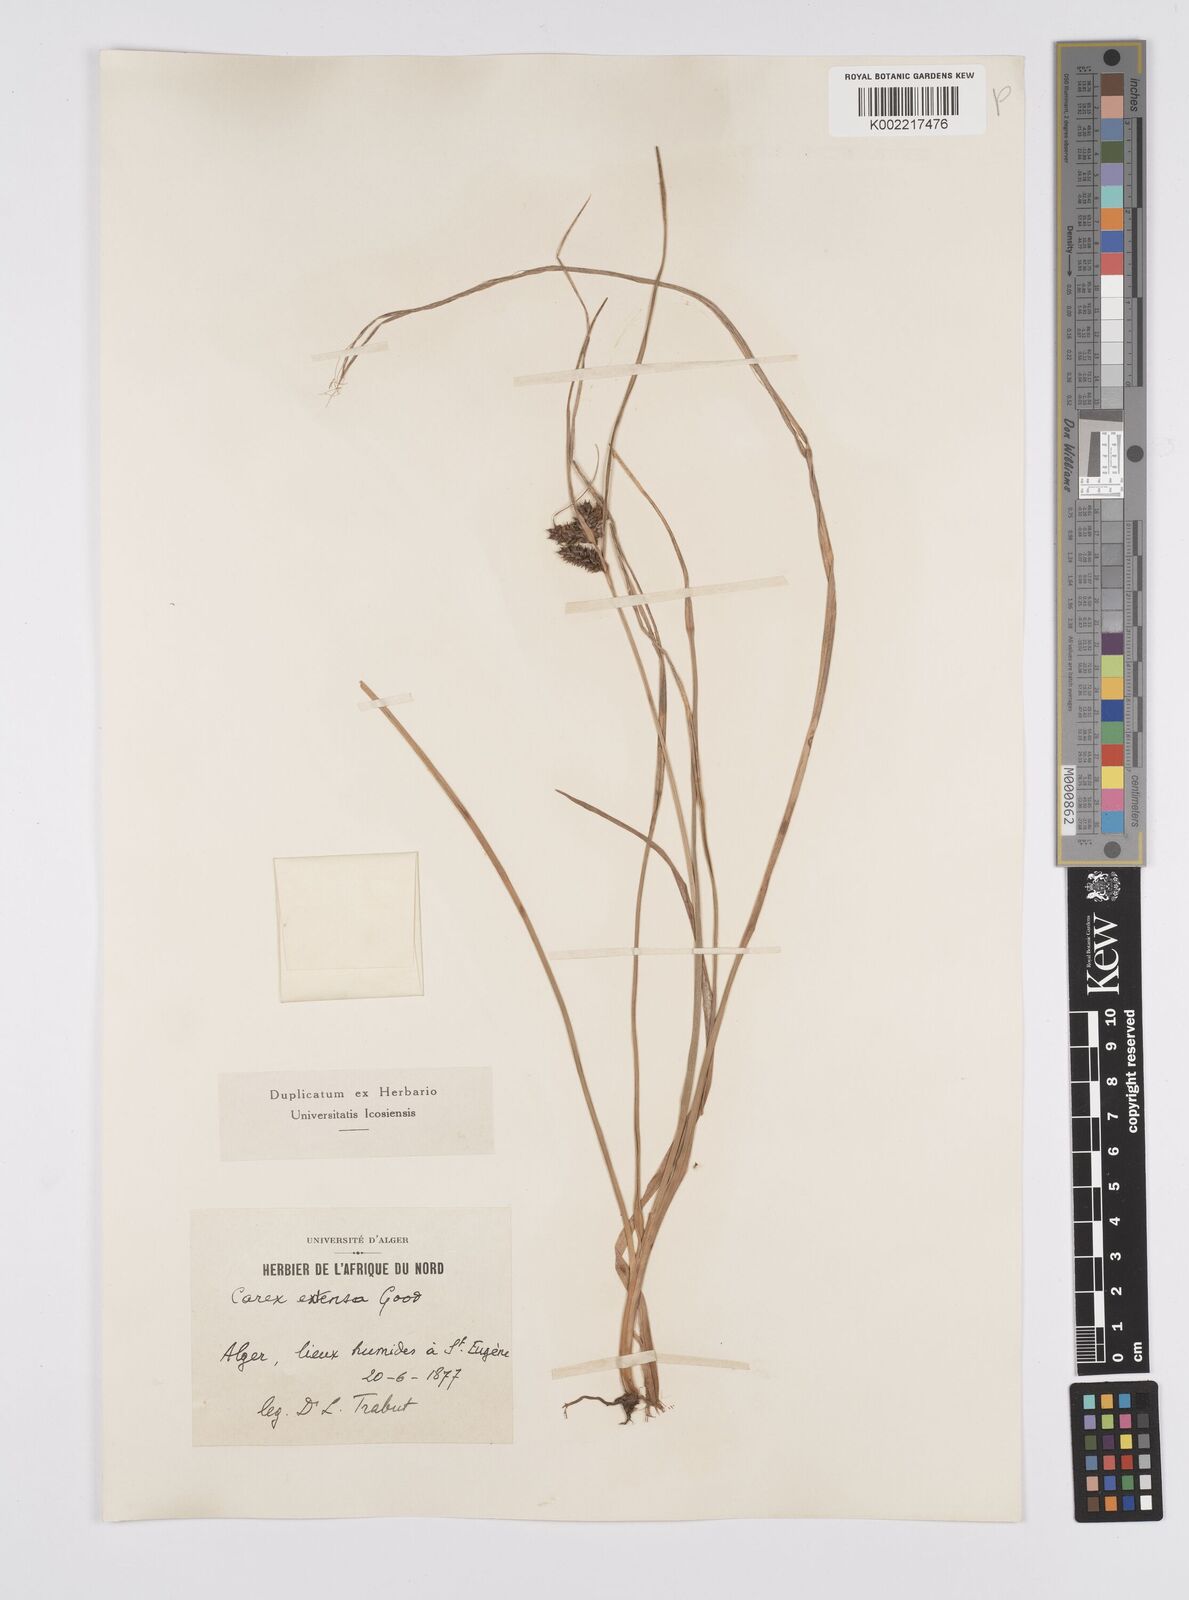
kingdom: Plantae
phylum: Tracheophyta
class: Liliopsida
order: Poales
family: Cyperaceae
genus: Carex
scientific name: Carex extensa
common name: Long-bracted sedge
